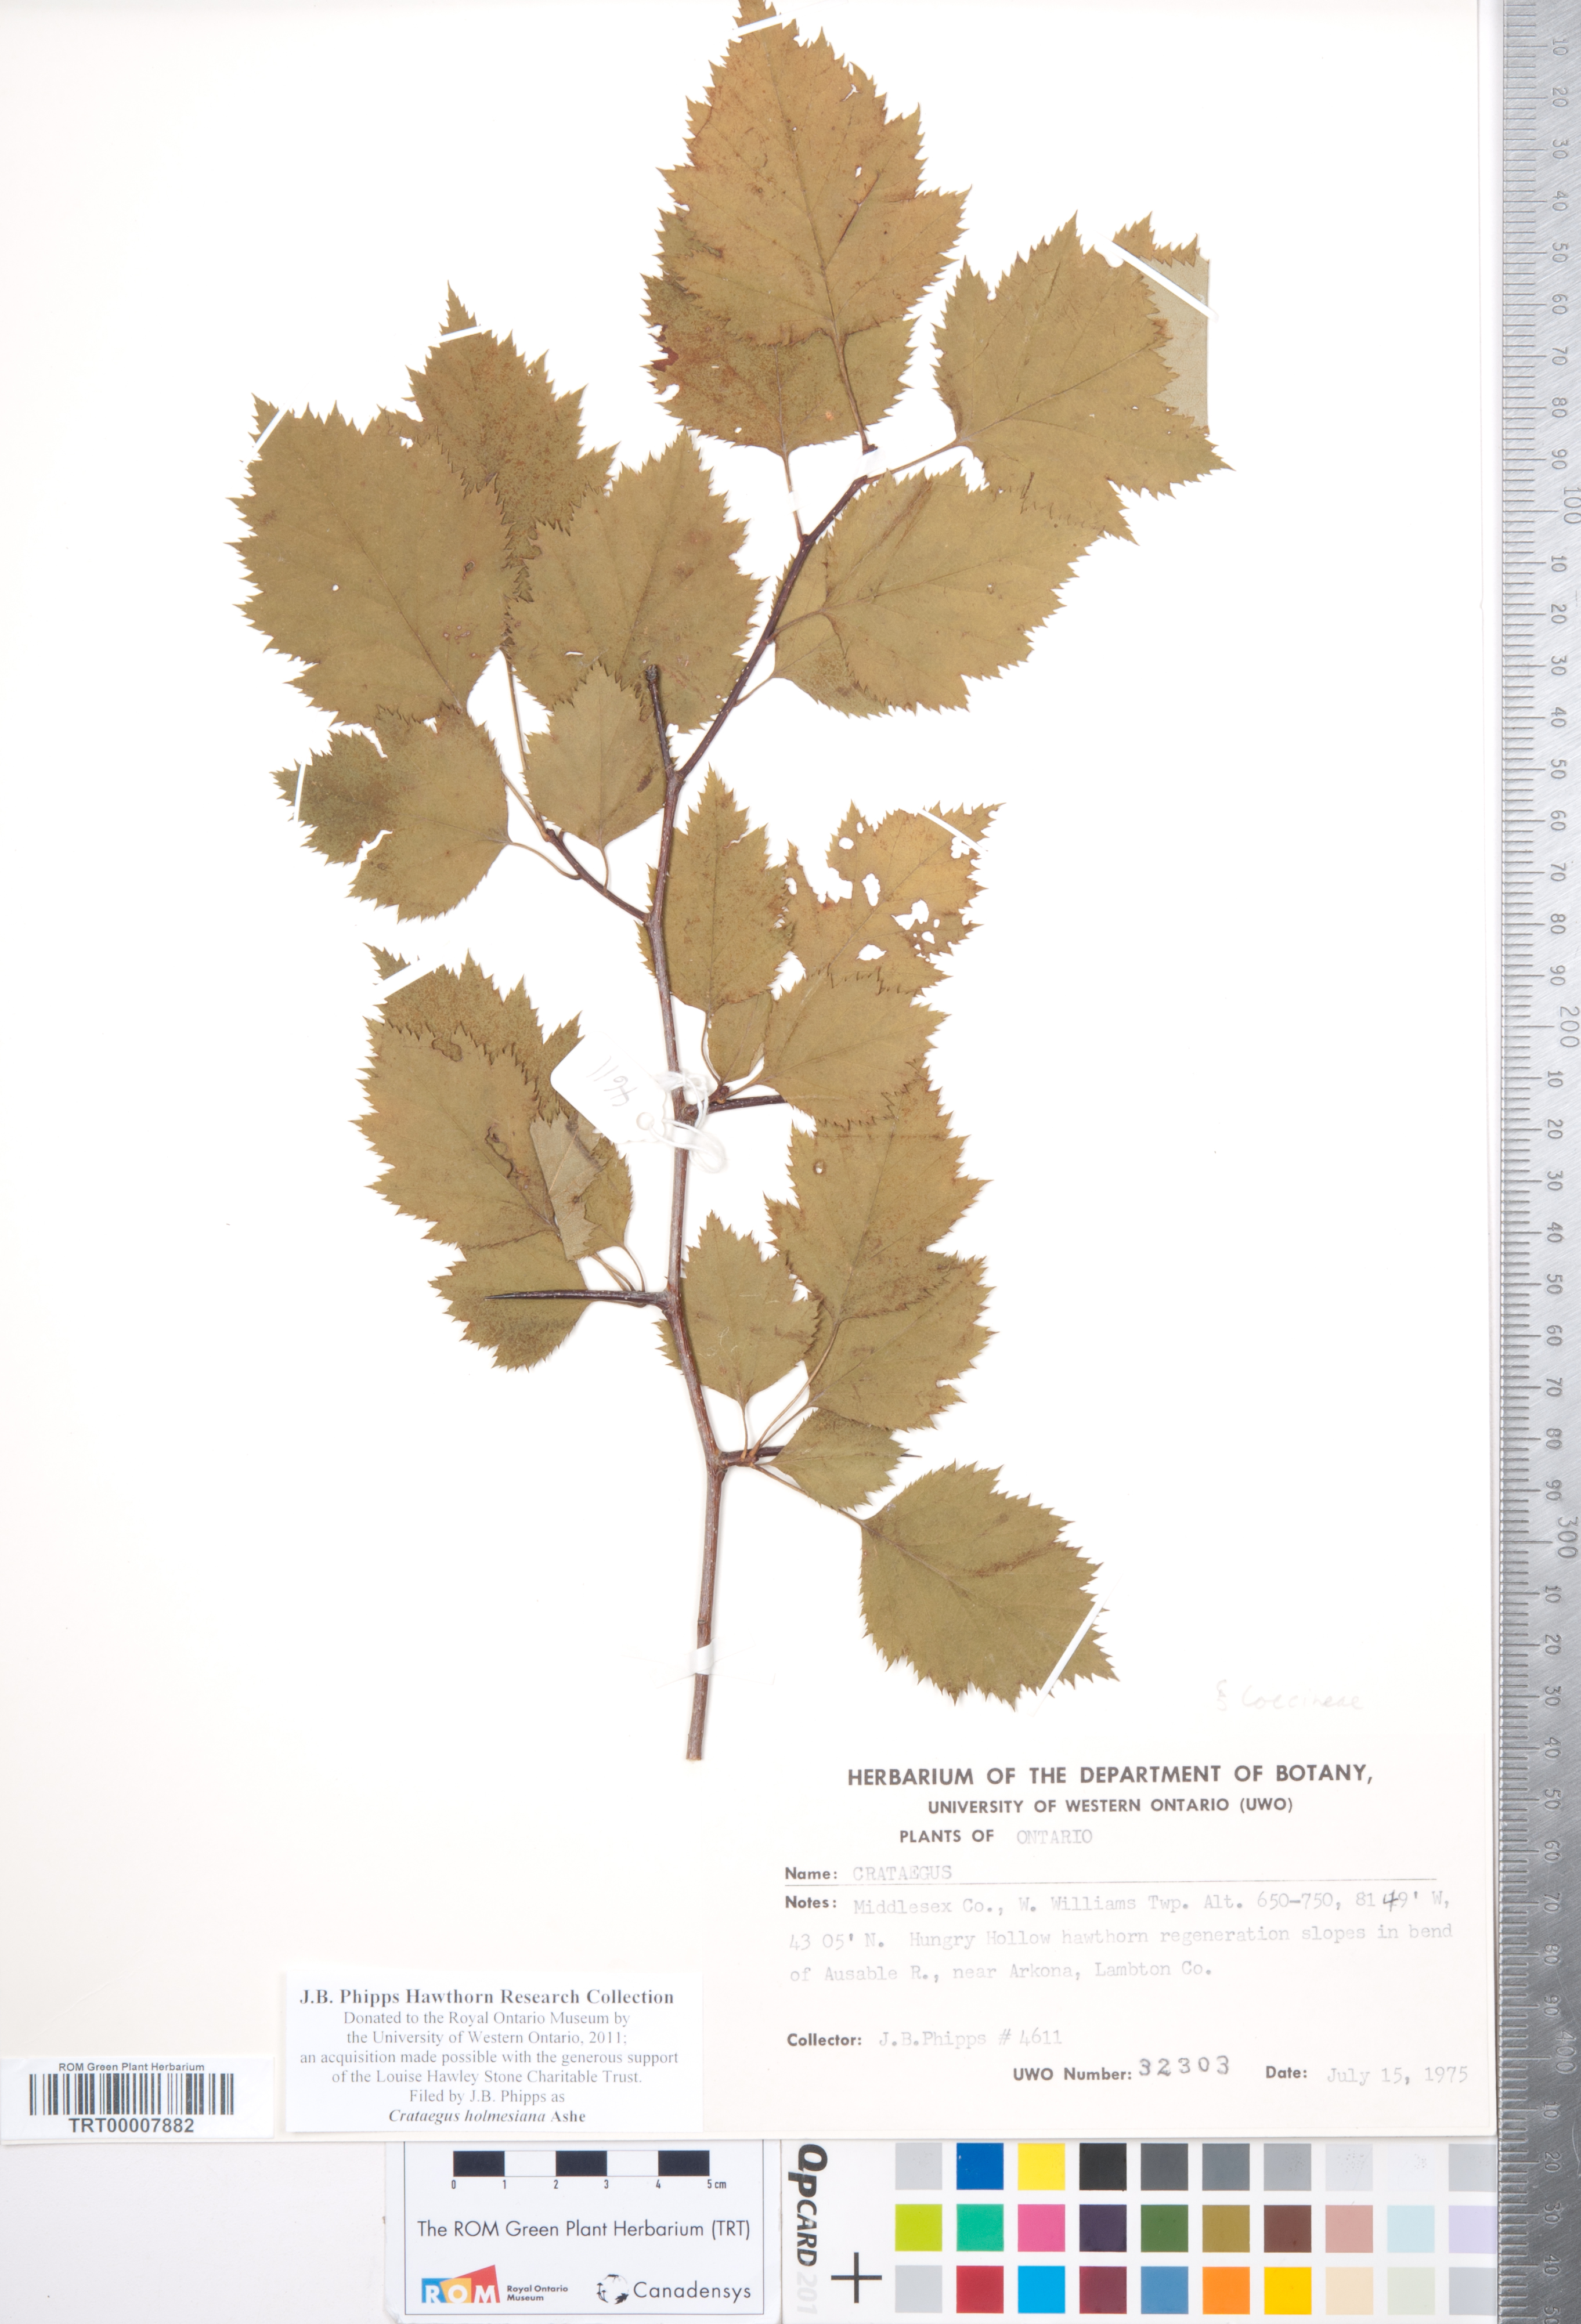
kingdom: Plantae
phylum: Tracheophyta
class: Magnoliopsida
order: Rosales
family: Rosaceae
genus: Crataegus
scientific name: Crataegus holmesiana
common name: Holmes' hawthorn
